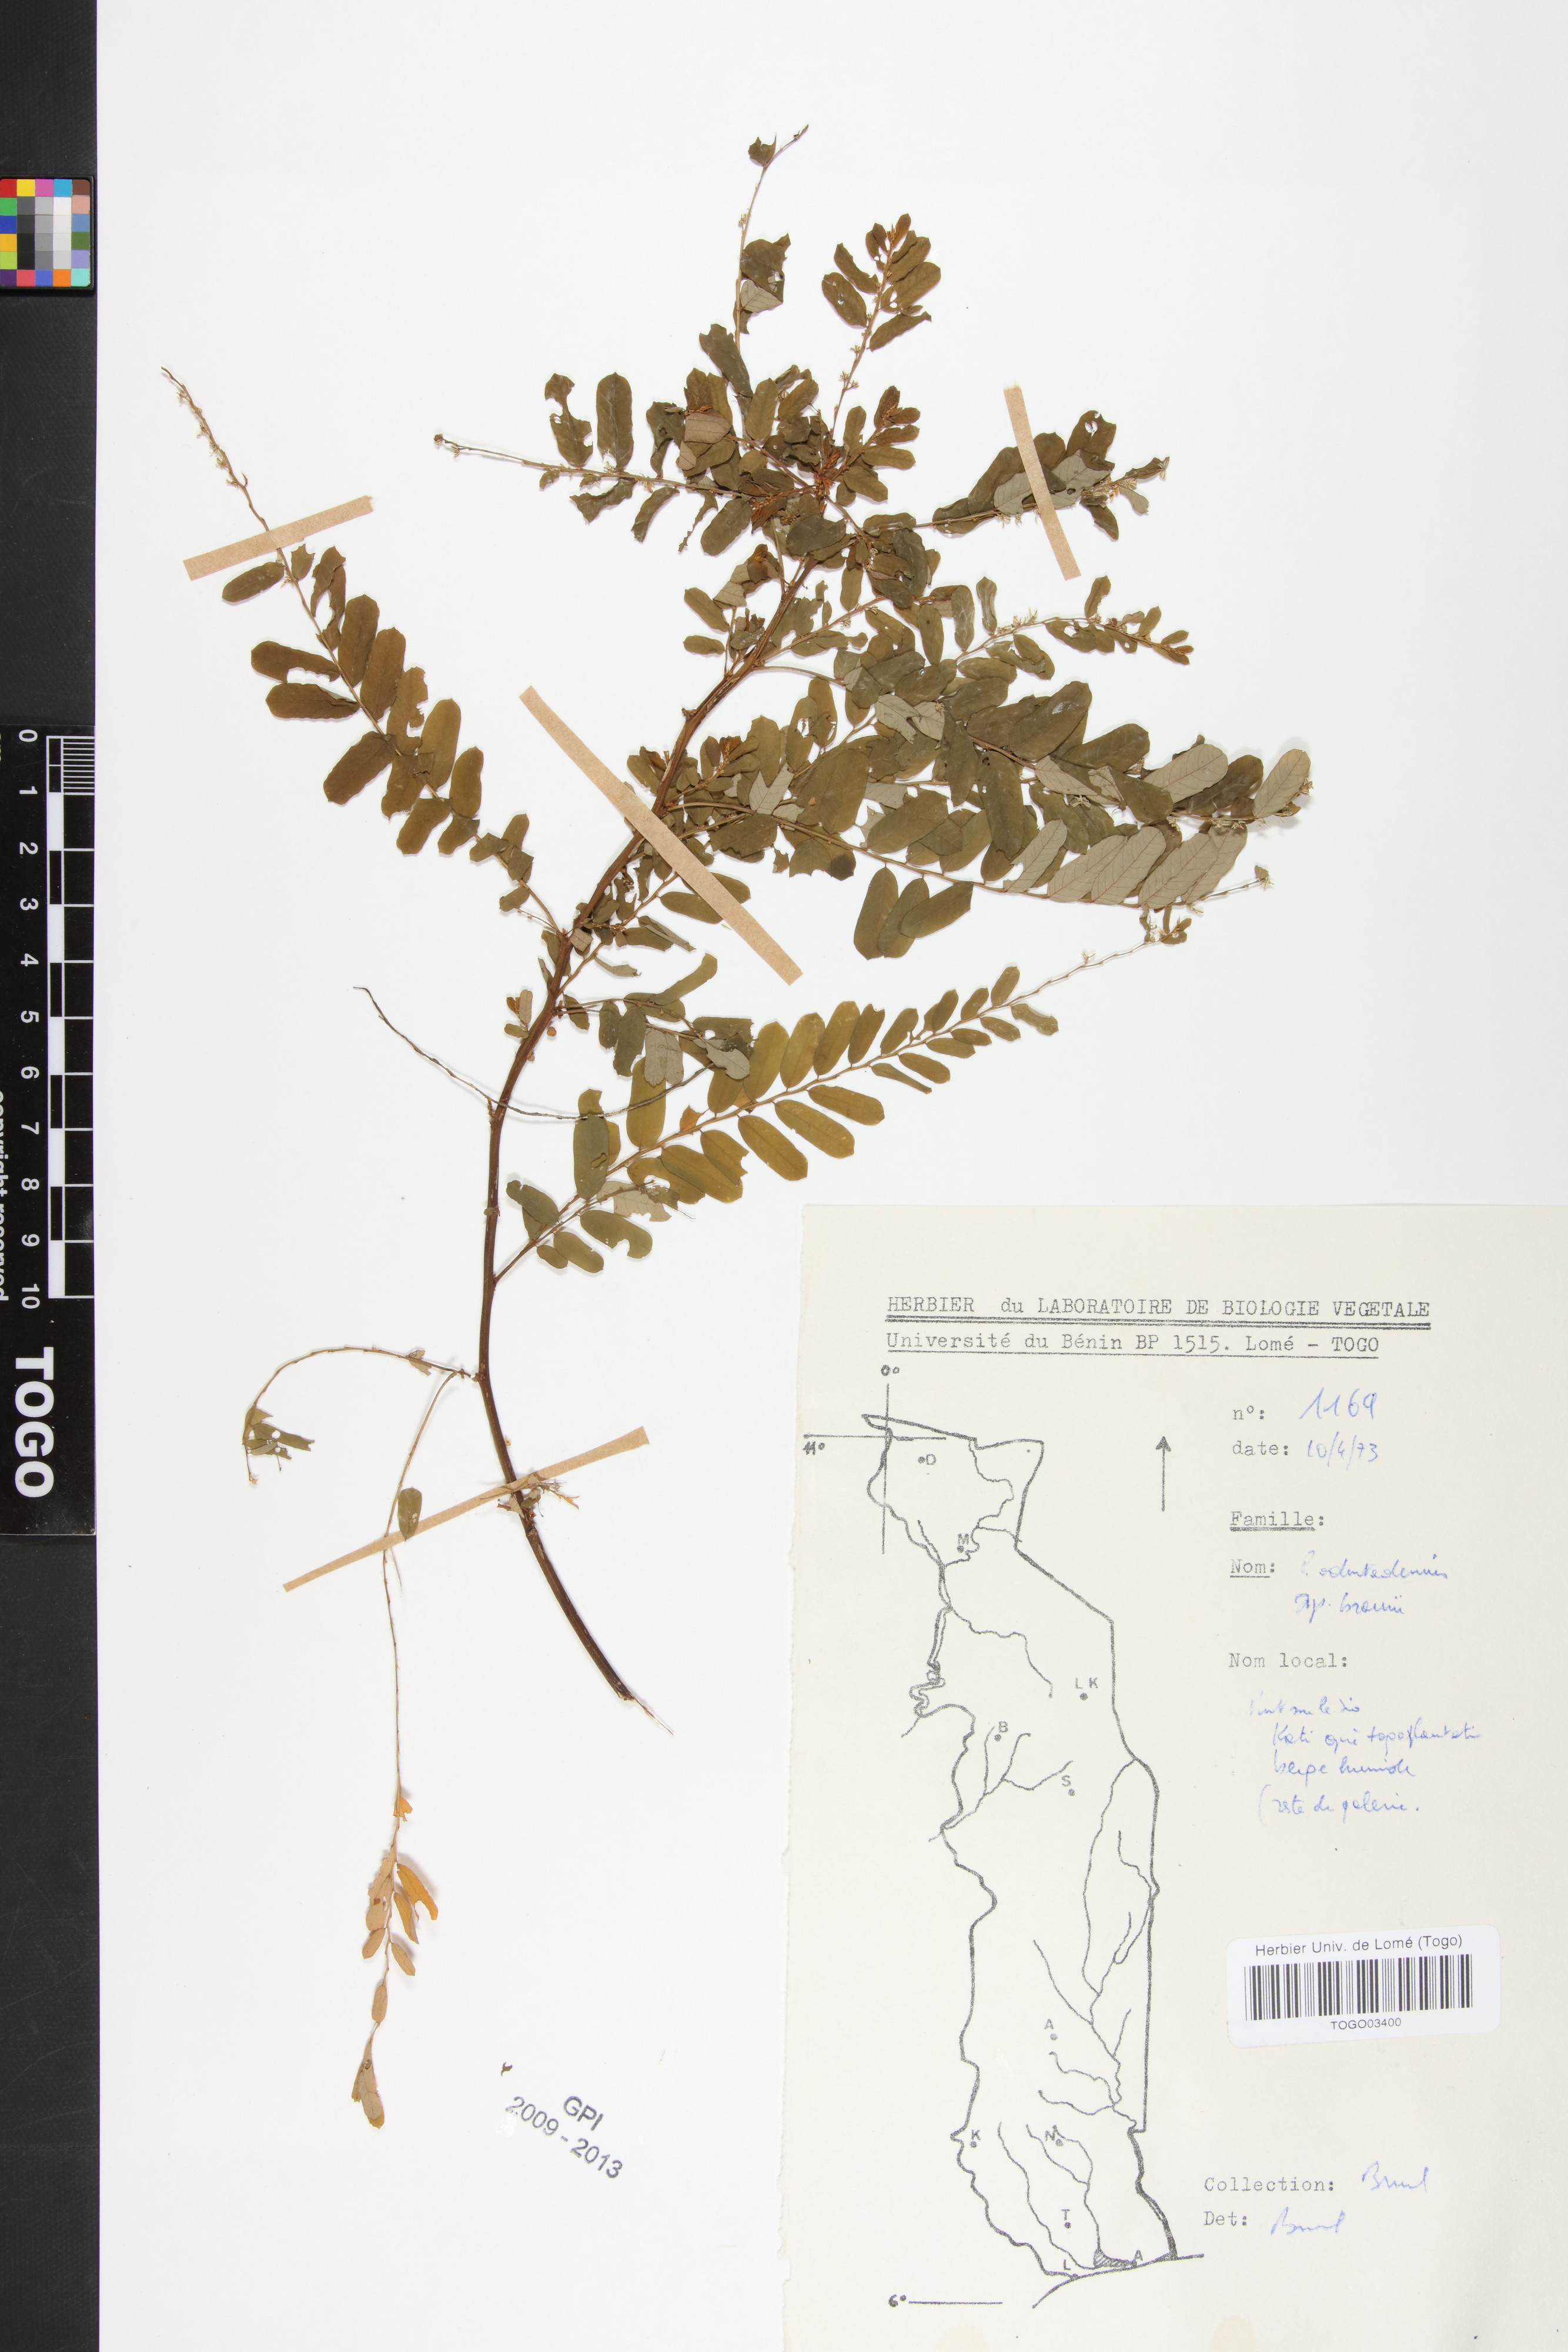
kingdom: Plantae
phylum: Tracheophyta
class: Magnoliopsida
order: Malpighiales
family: Phyllanthaceae
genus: Phyllanthus
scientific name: Phyllanthus odontadenius
